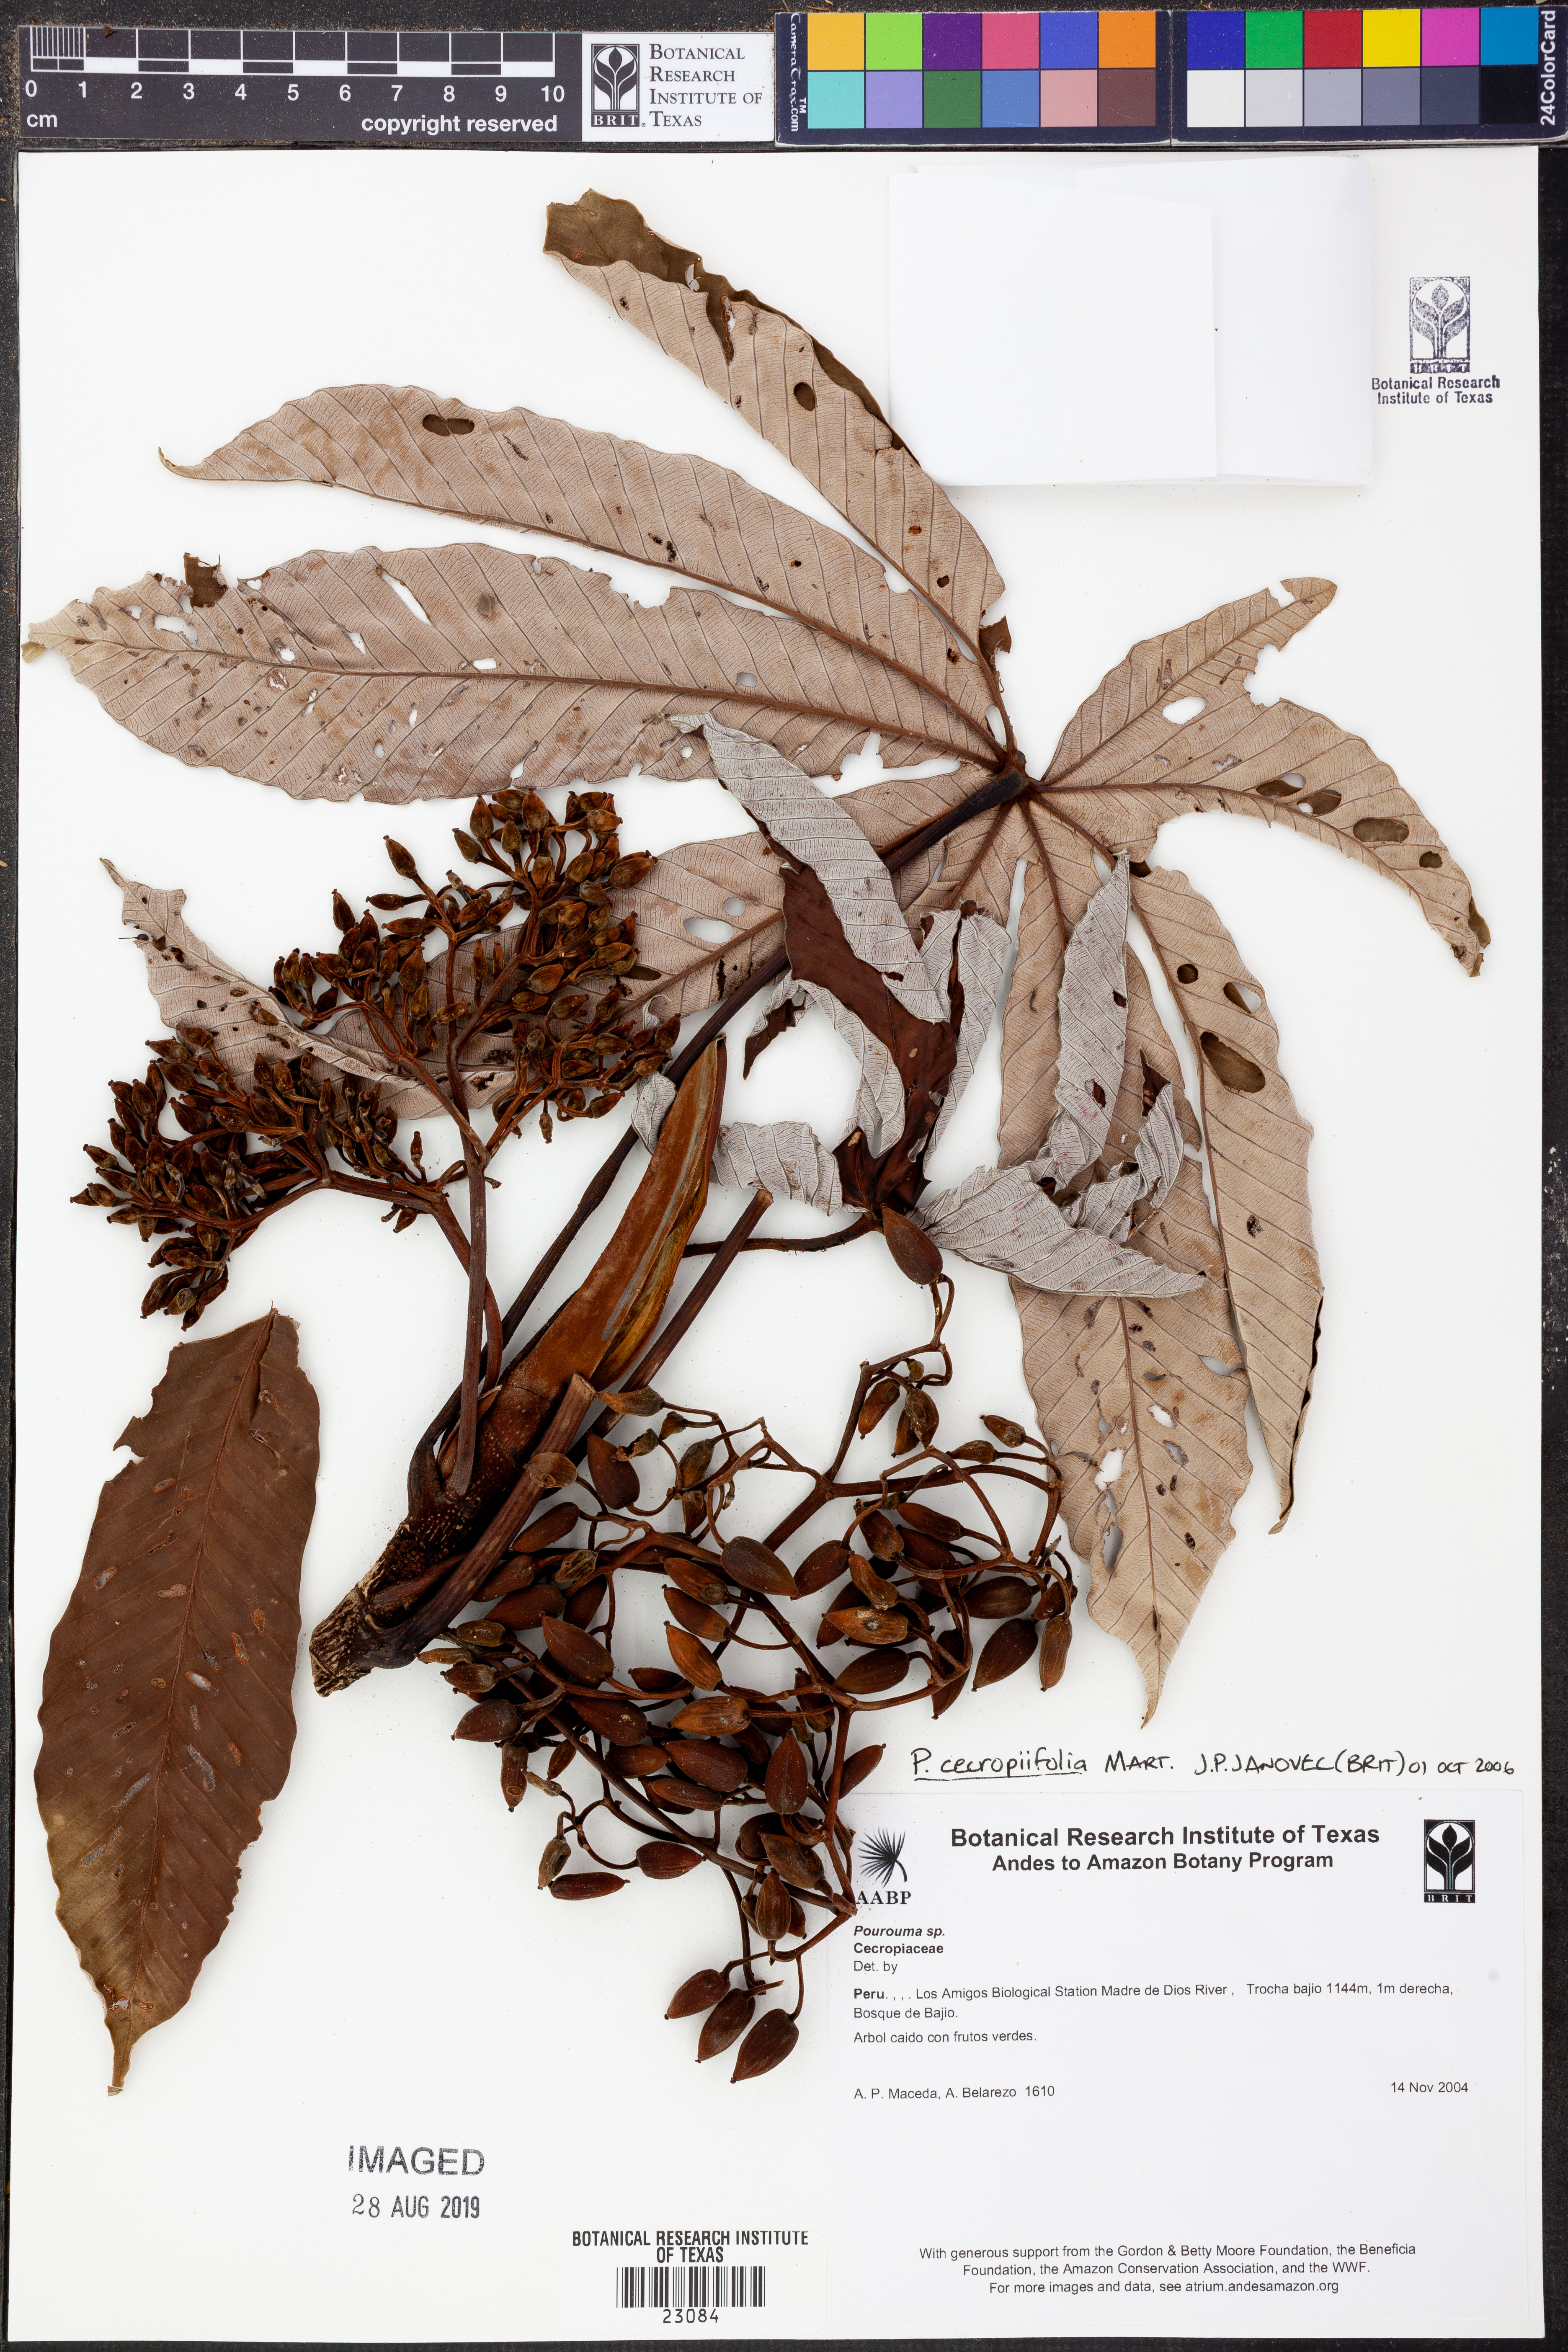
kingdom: Plantae
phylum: Tracheophyta
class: Magnoliopsida
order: Rosales
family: Urticaceae
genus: Pourouma
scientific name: Pourouma
